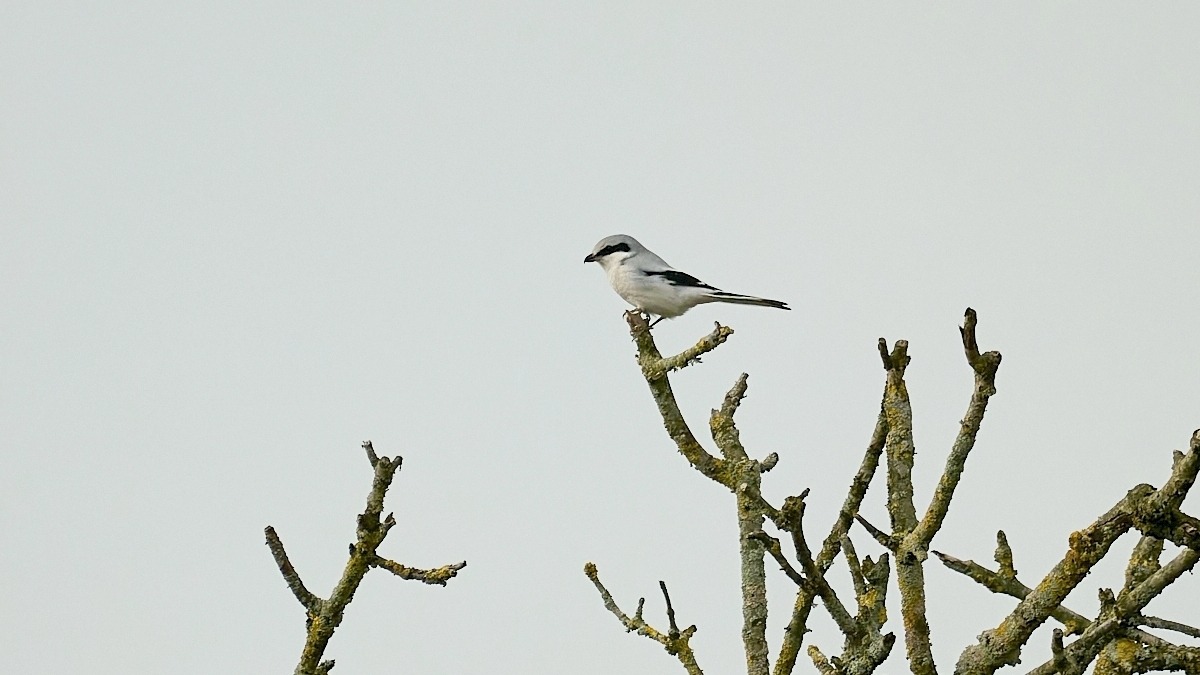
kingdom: Animalia
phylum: Chordata
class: Aves
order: Passeriformes
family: Laniidae
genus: Lanius
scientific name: Lanius excubitor
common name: Stor tornskade
